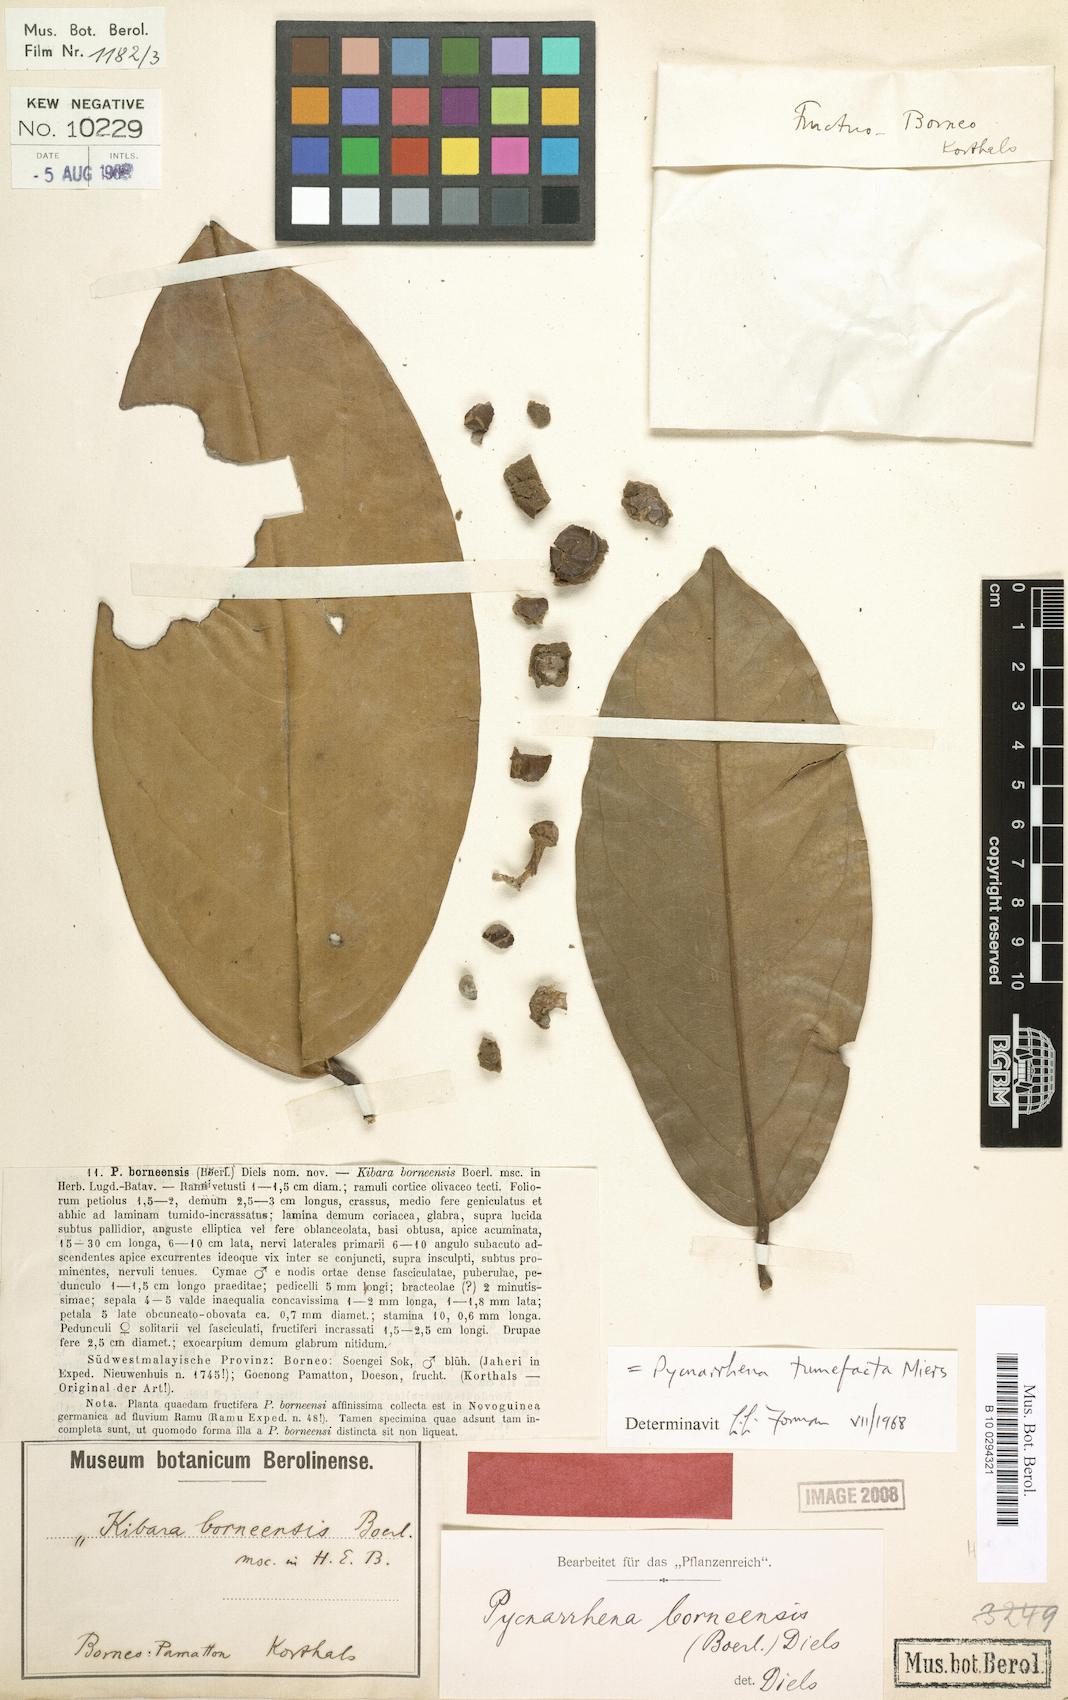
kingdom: Plantae
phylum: Tracheophyta
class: Magnoliopsida
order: Ranunculales
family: Menispermaceae
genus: Pycnarrhena
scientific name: Pycnarrhena tumefacta
